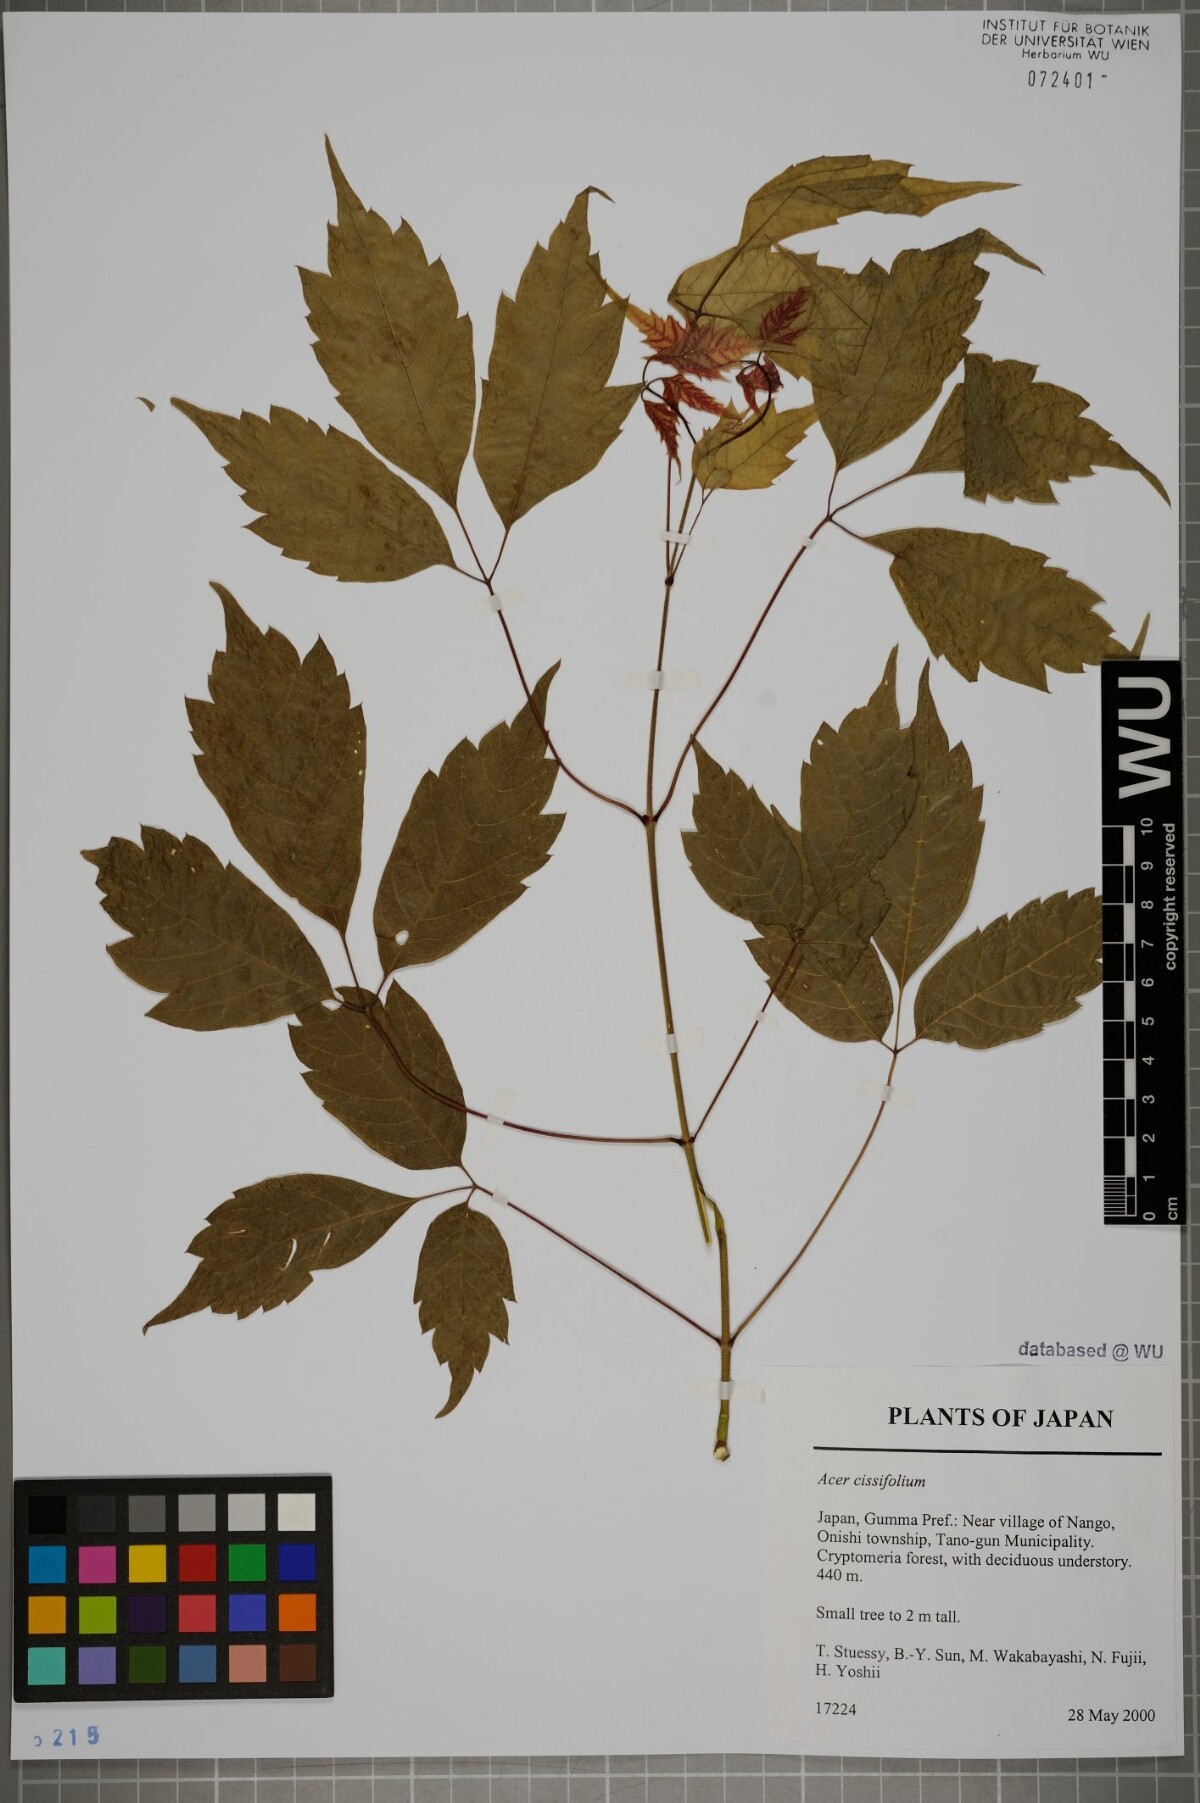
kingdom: Plantae
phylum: Tracheophyta
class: Magnoliopsida
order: Sapindales
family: Sapindaceae
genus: Acer
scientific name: Acer cissifolium
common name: Ivyleaf maple
